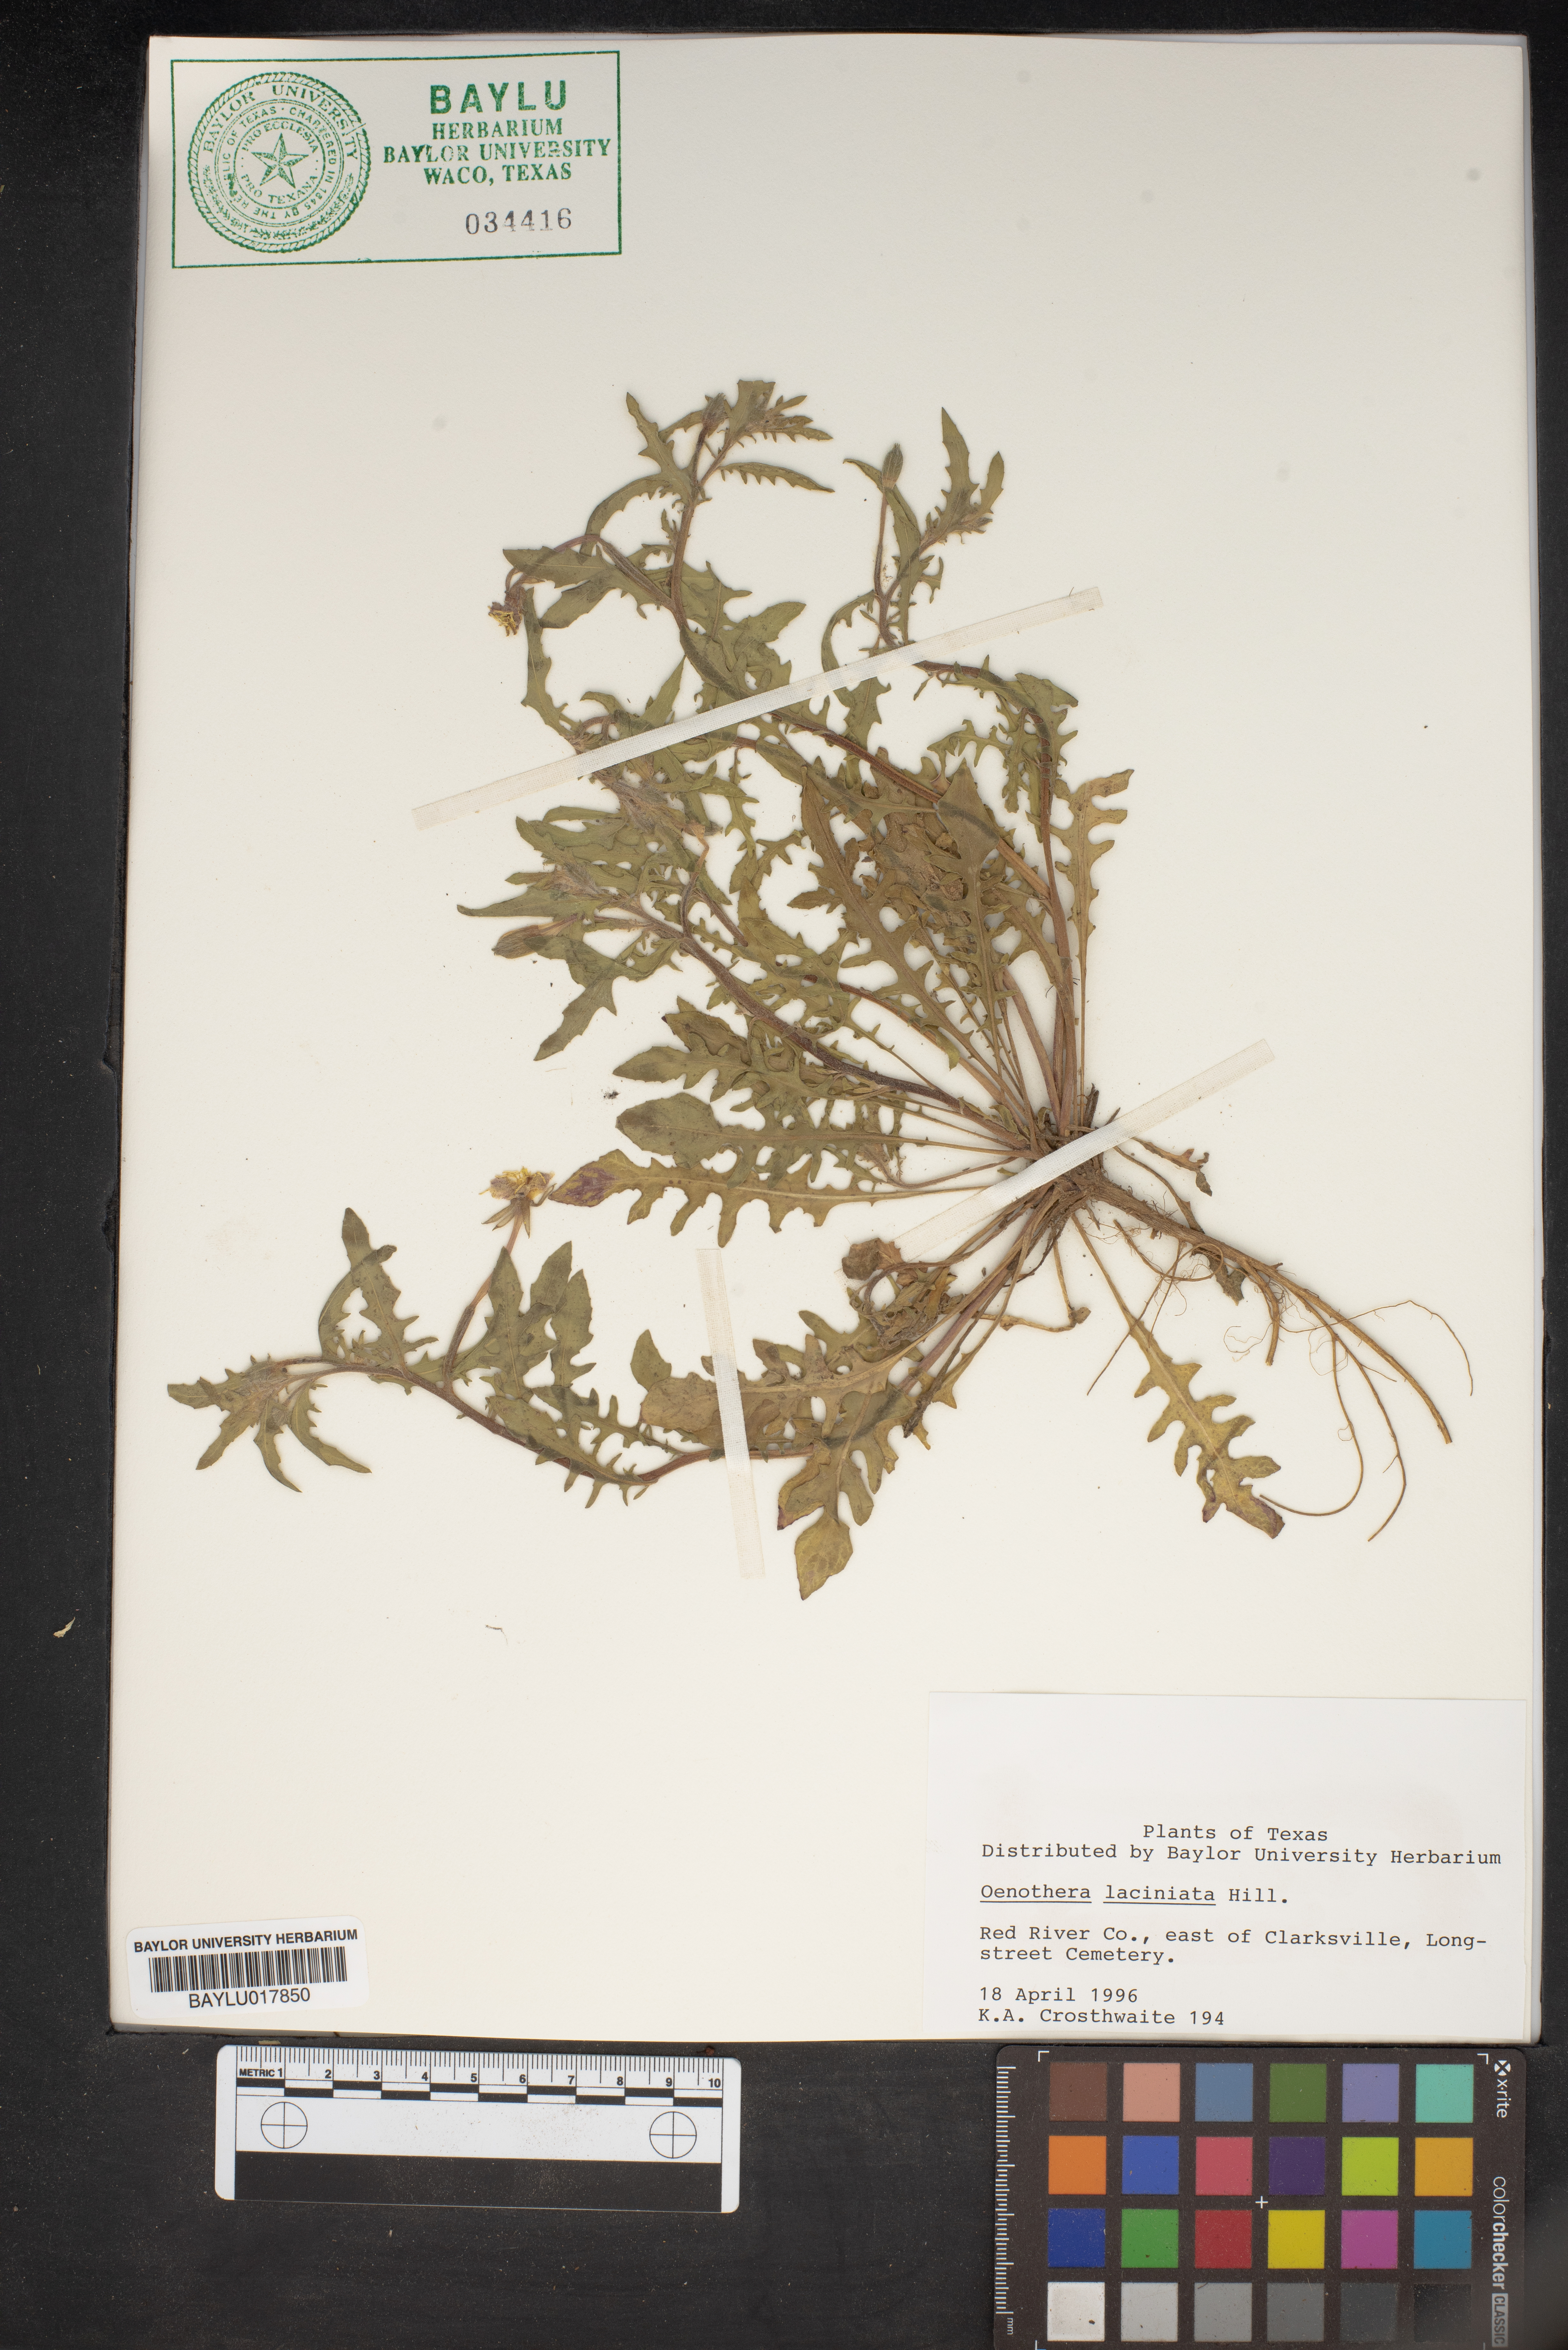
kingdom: Plantae
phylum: Tracheophyta
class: Magnoliopsida
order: Myrtales
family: Onagraceae
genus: Oenothera
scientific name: Oenothera laciniata
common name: Cut-leaved evening-primrose
